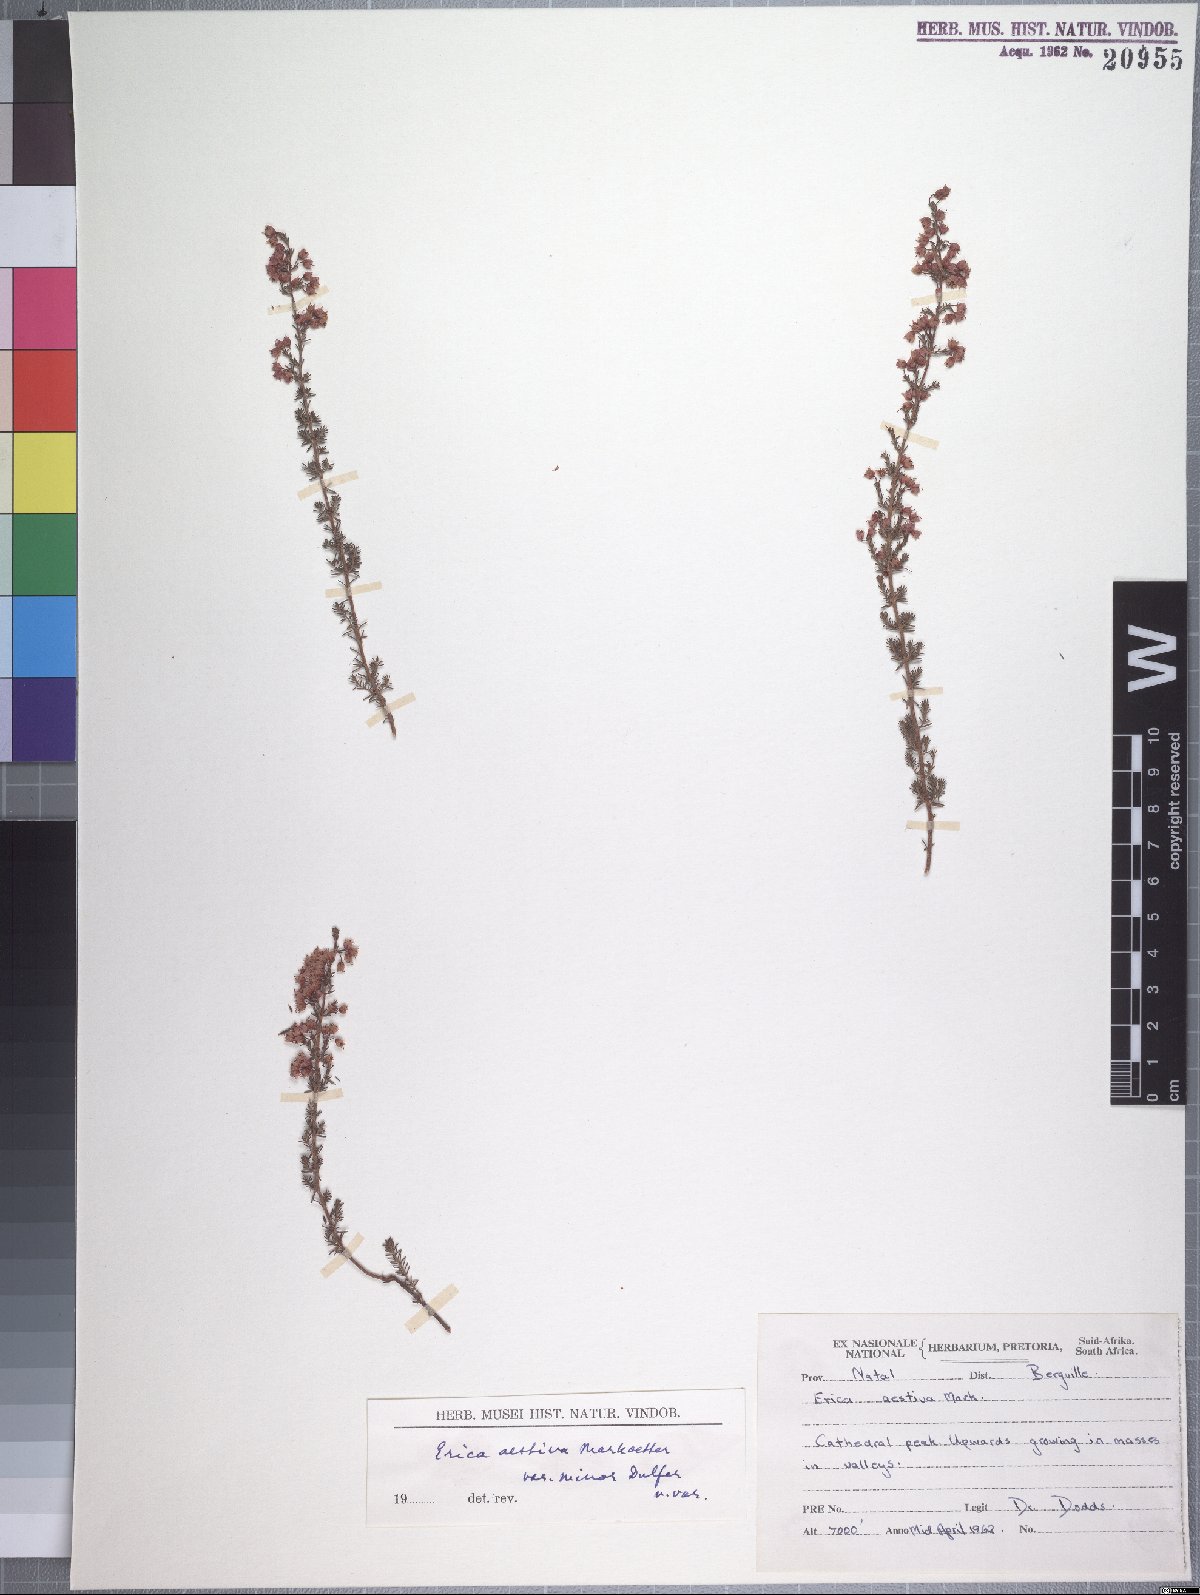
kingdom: Plantae
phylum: Tracheophyta
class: Magnoliopsida
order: Ericales
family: Ericaceae
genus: Erica
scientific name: Erica aestiva
